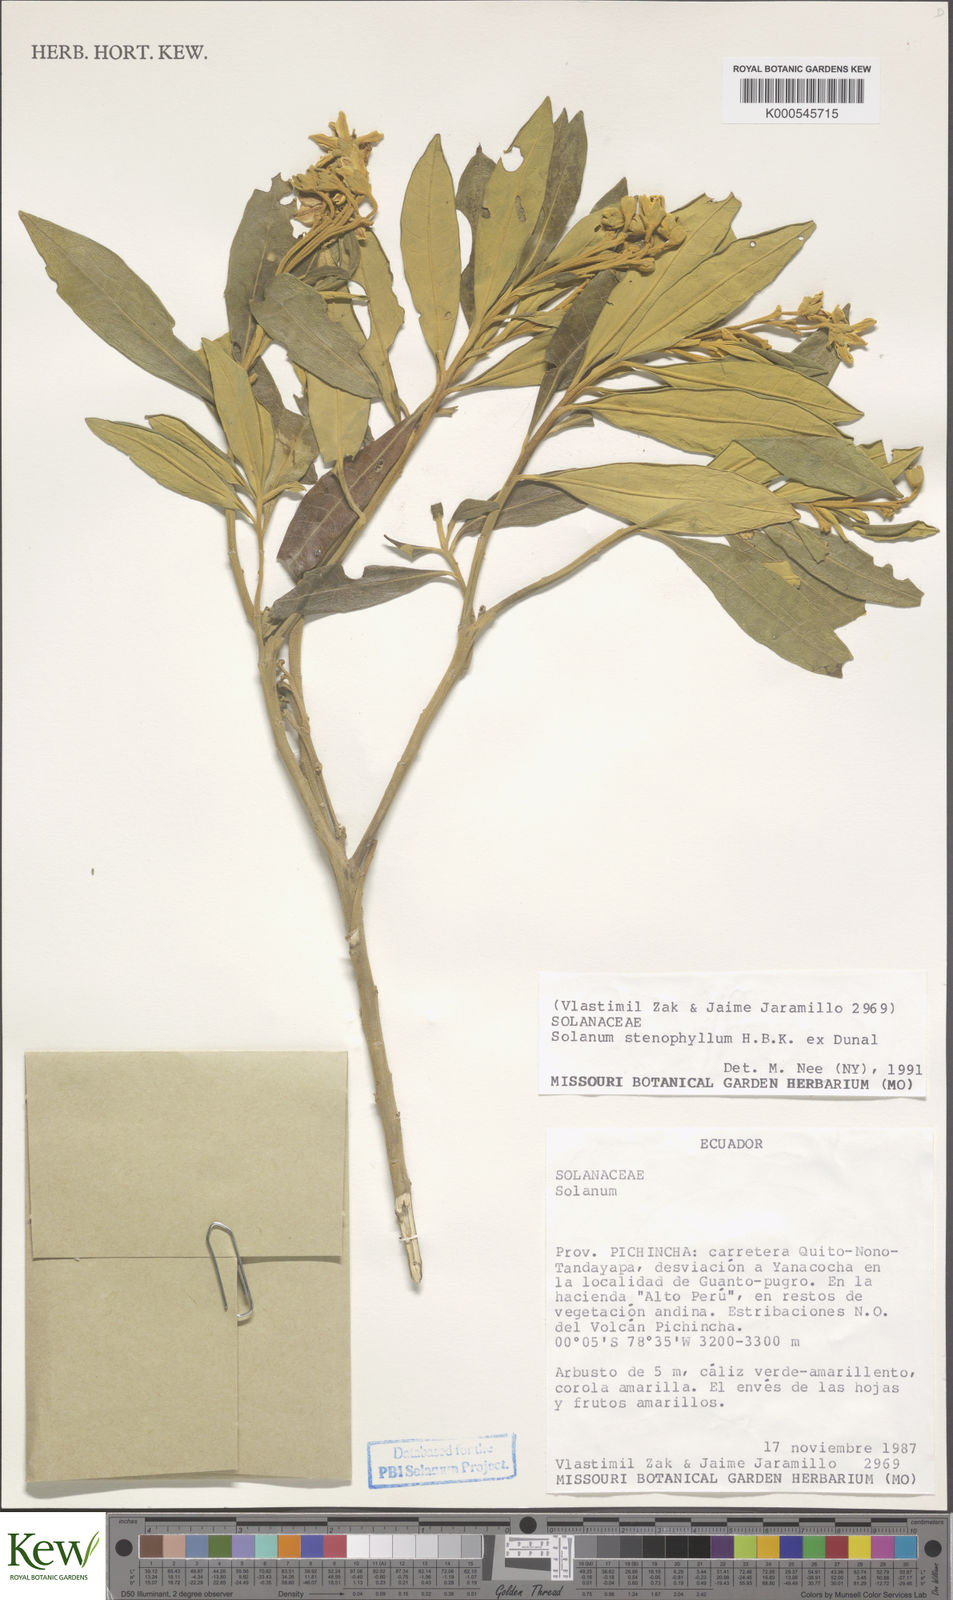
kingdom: Plantae
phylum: Tracheophyta
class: Magnoliopsida
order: Solanales
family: Solanaceae
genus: Solanum
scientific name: Solanum stenophyllum
